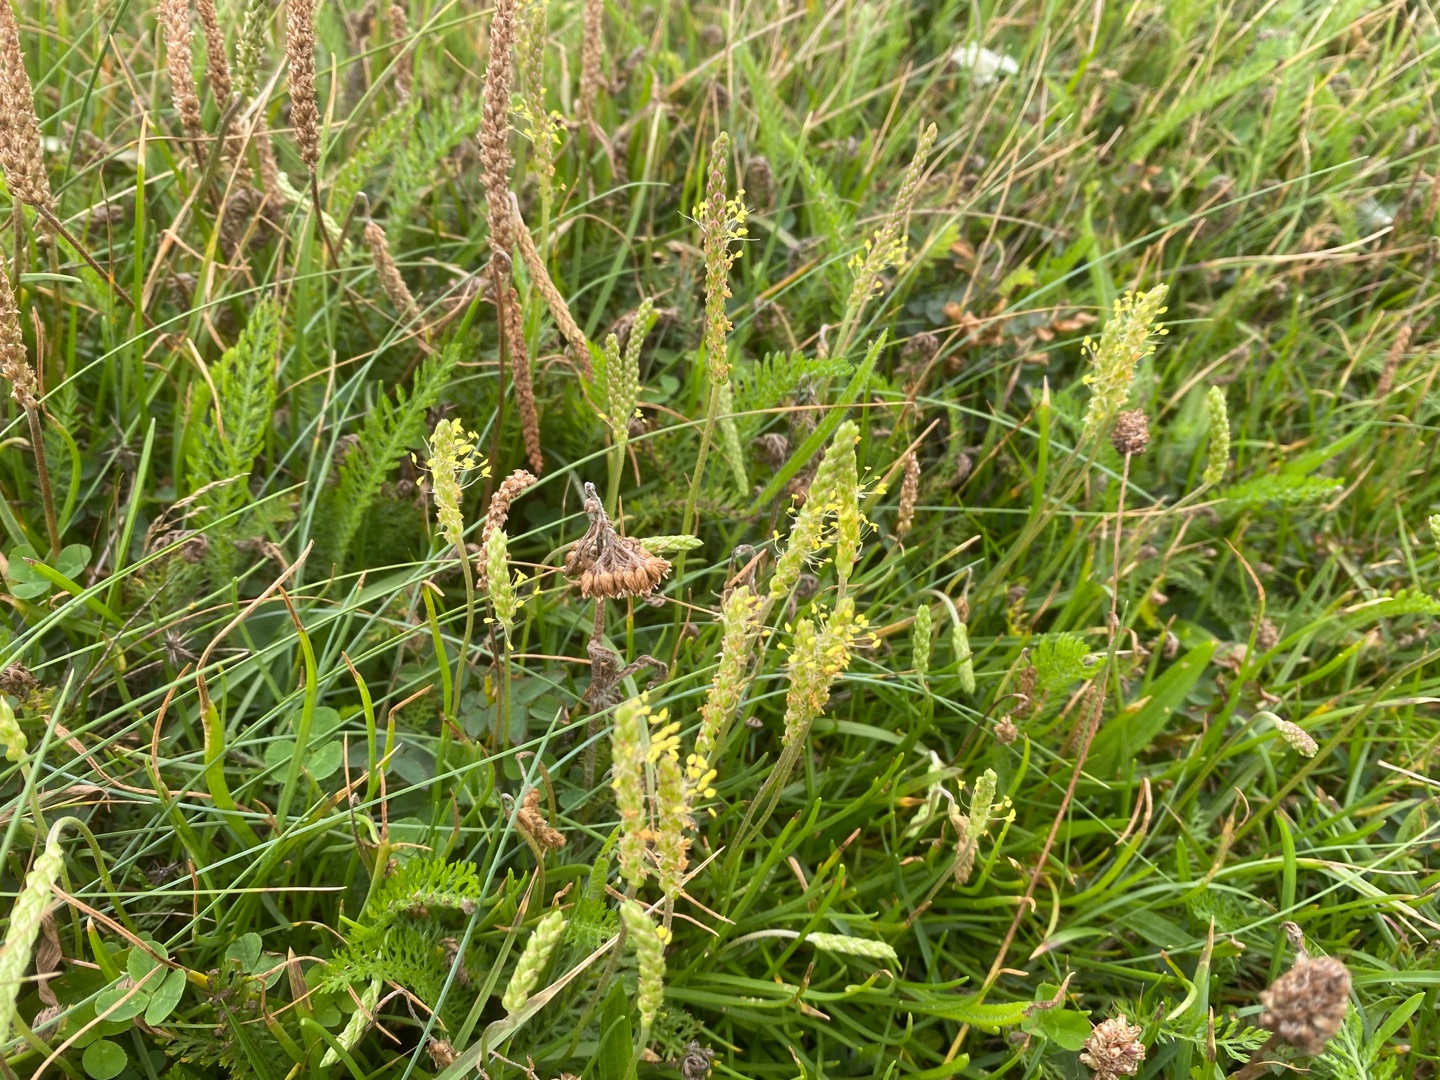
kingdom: Plantae
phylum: Tracheophyta
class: Magnoliopsida
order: Lamiales
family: Plantaginaceae
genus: Plantago
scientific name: Plantago maritima
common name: Strand-vejbred
